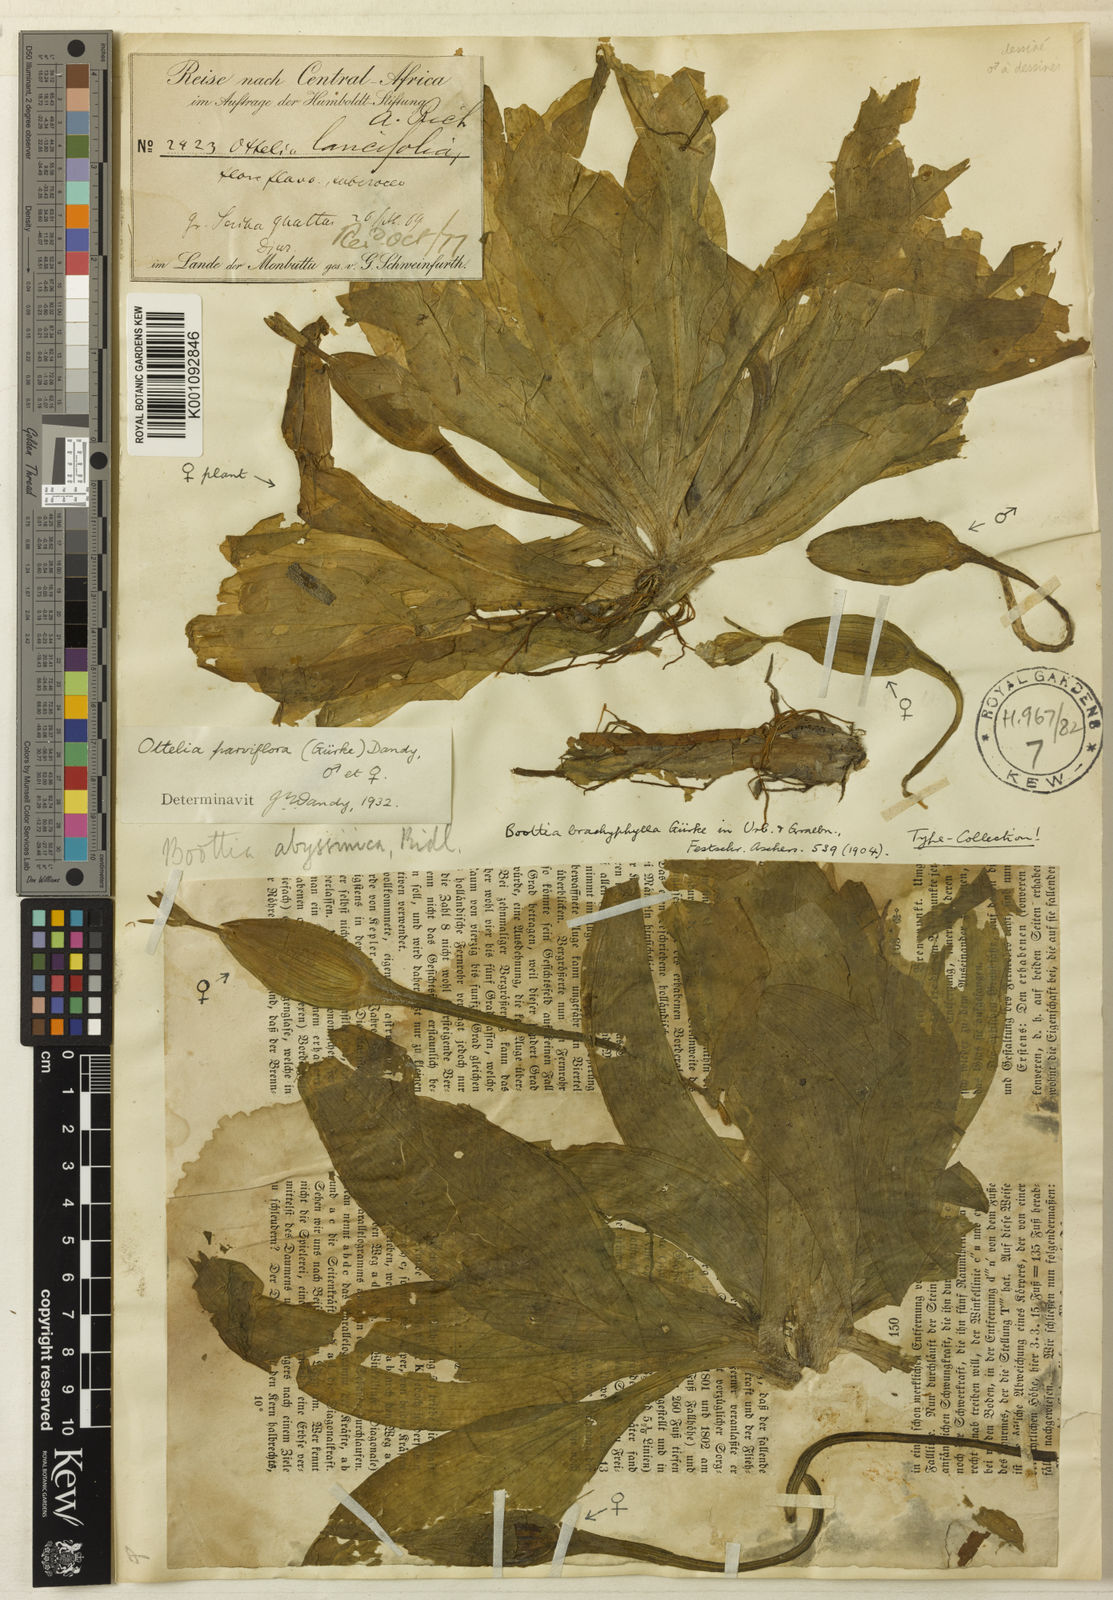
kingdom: Plantae
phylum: Tracheophyta
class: Liliopsida
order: Alismatales
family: Hydrocharitaceae
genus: Ottelia
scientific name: Ottelia
